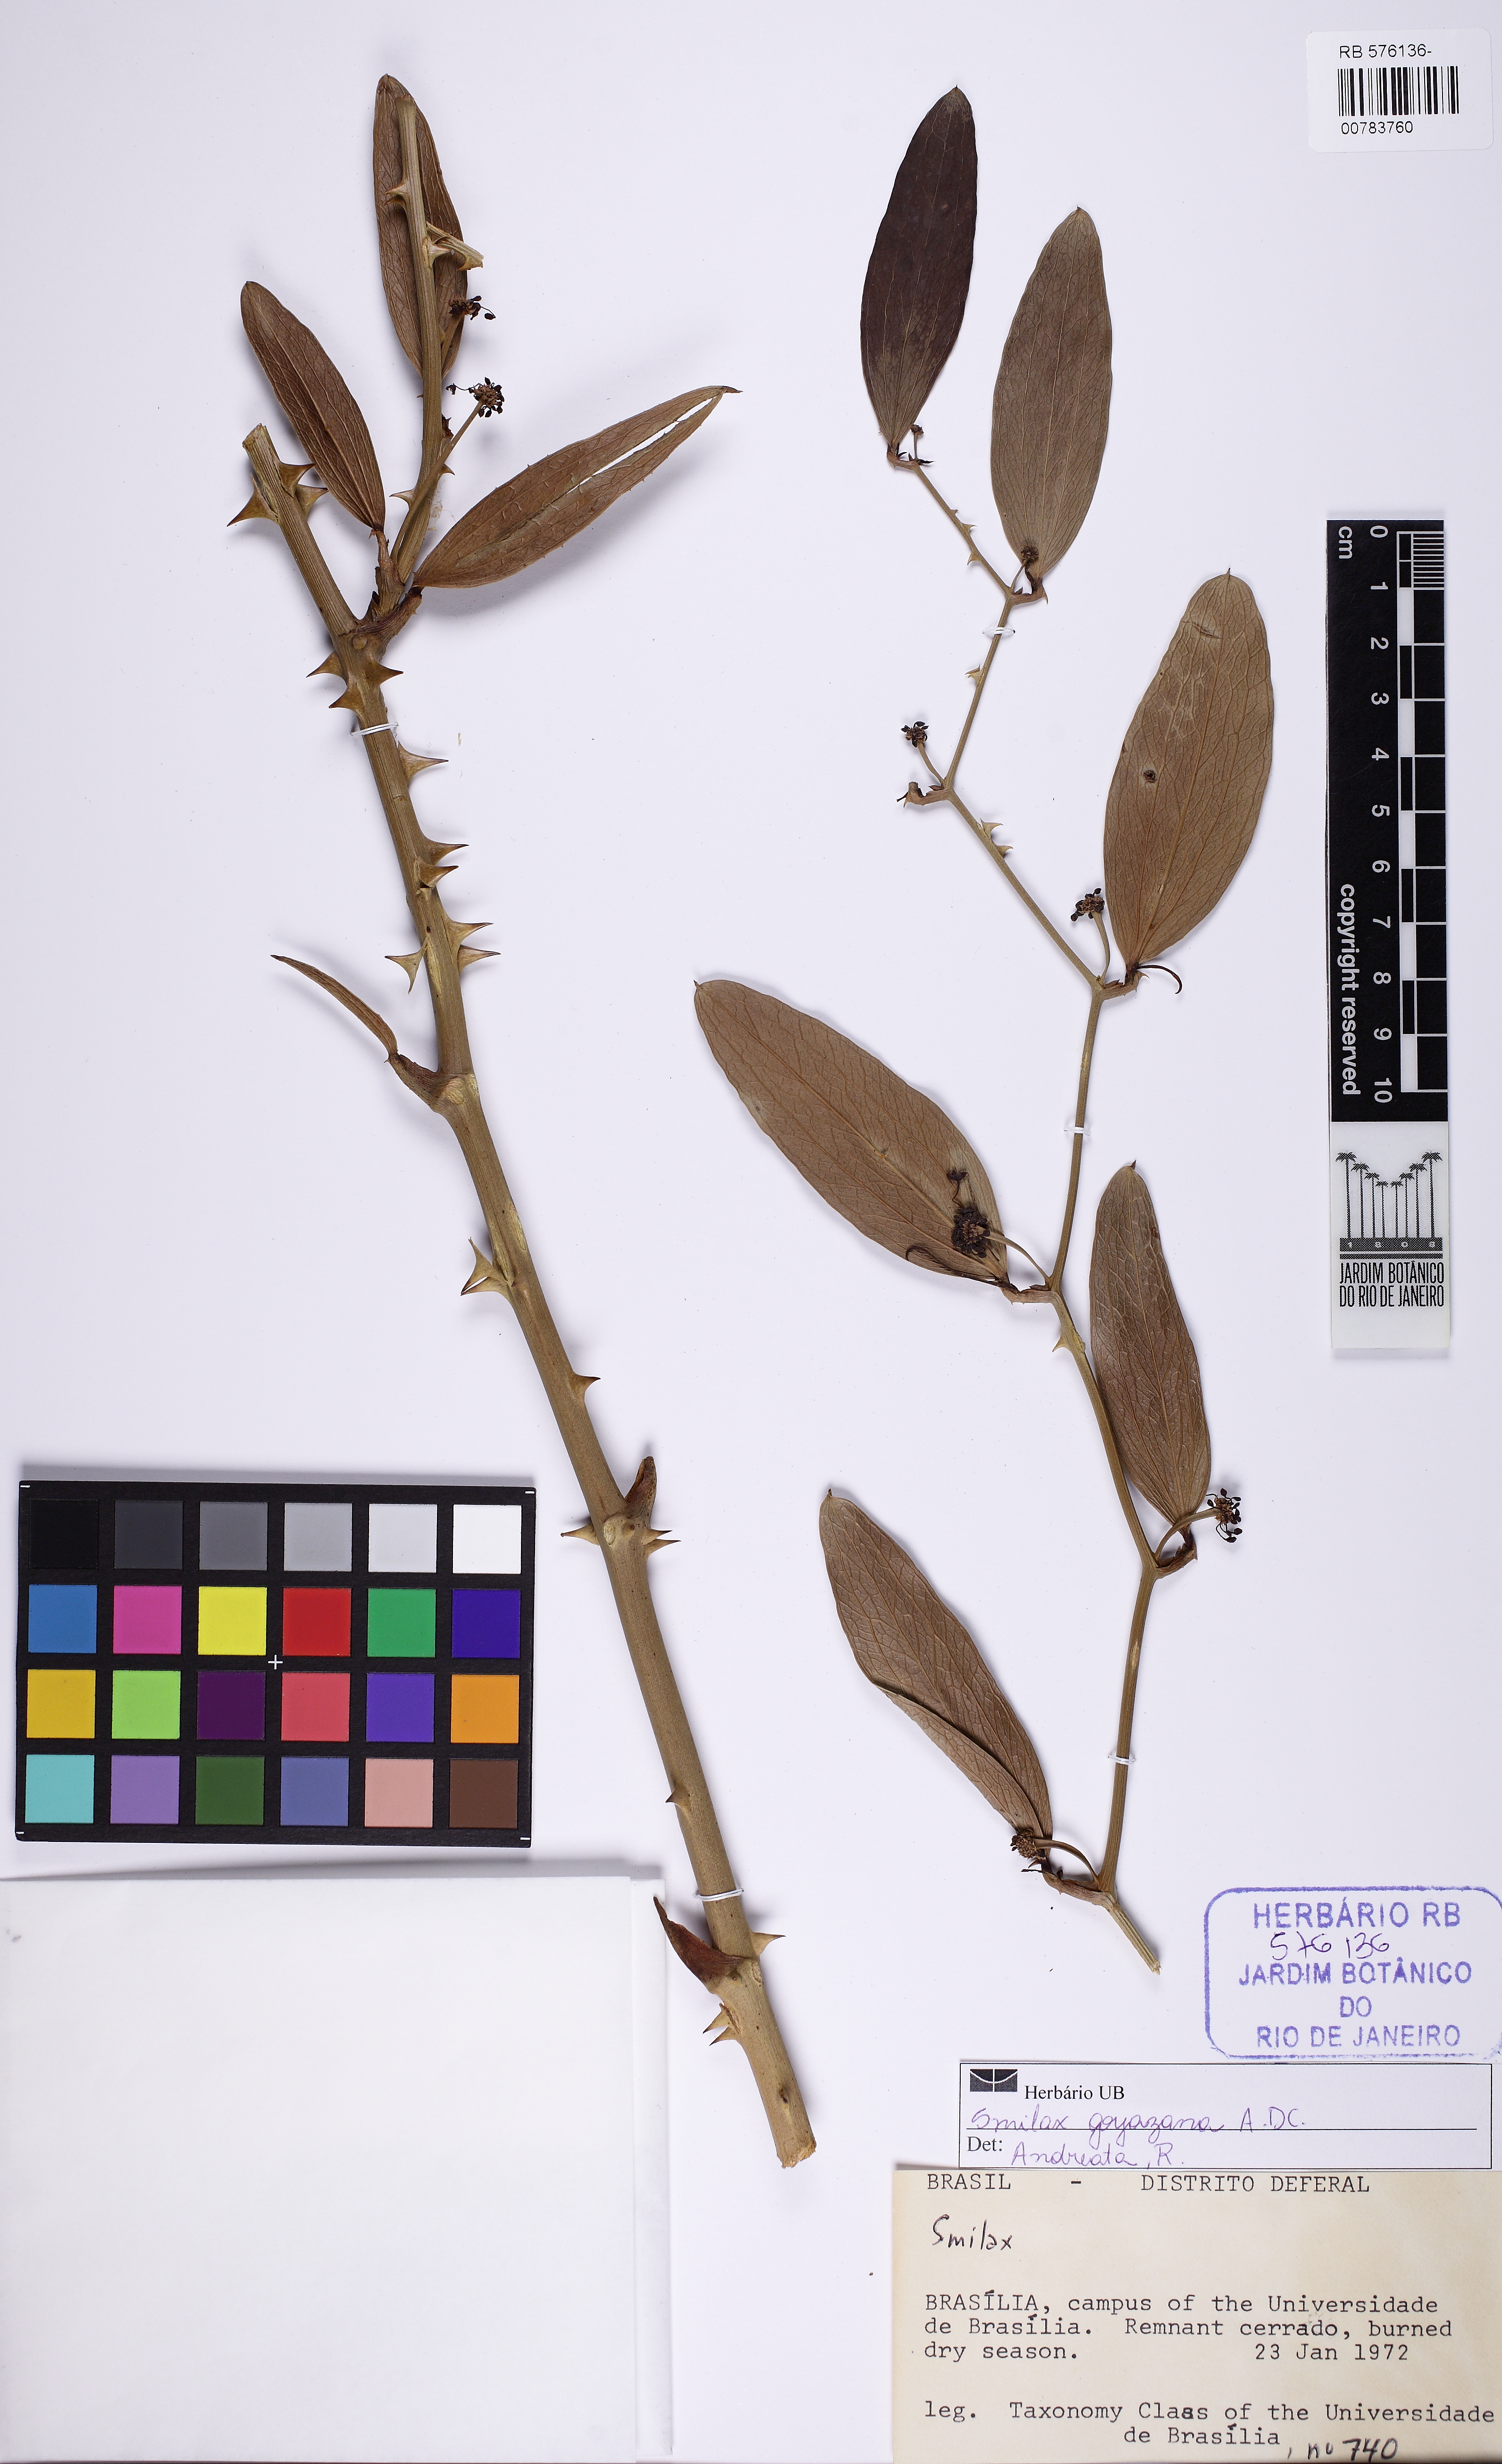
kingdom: Plantae
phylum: Tracheophyta
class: Liliopsida
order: Liliales
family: Smilacaceae
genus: Smilax
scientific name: Smilax goyazana
